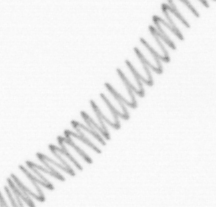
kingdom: Chromista
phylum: Ochrophyta
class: Bacillariophyceae
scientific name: Bacillariophyceae
